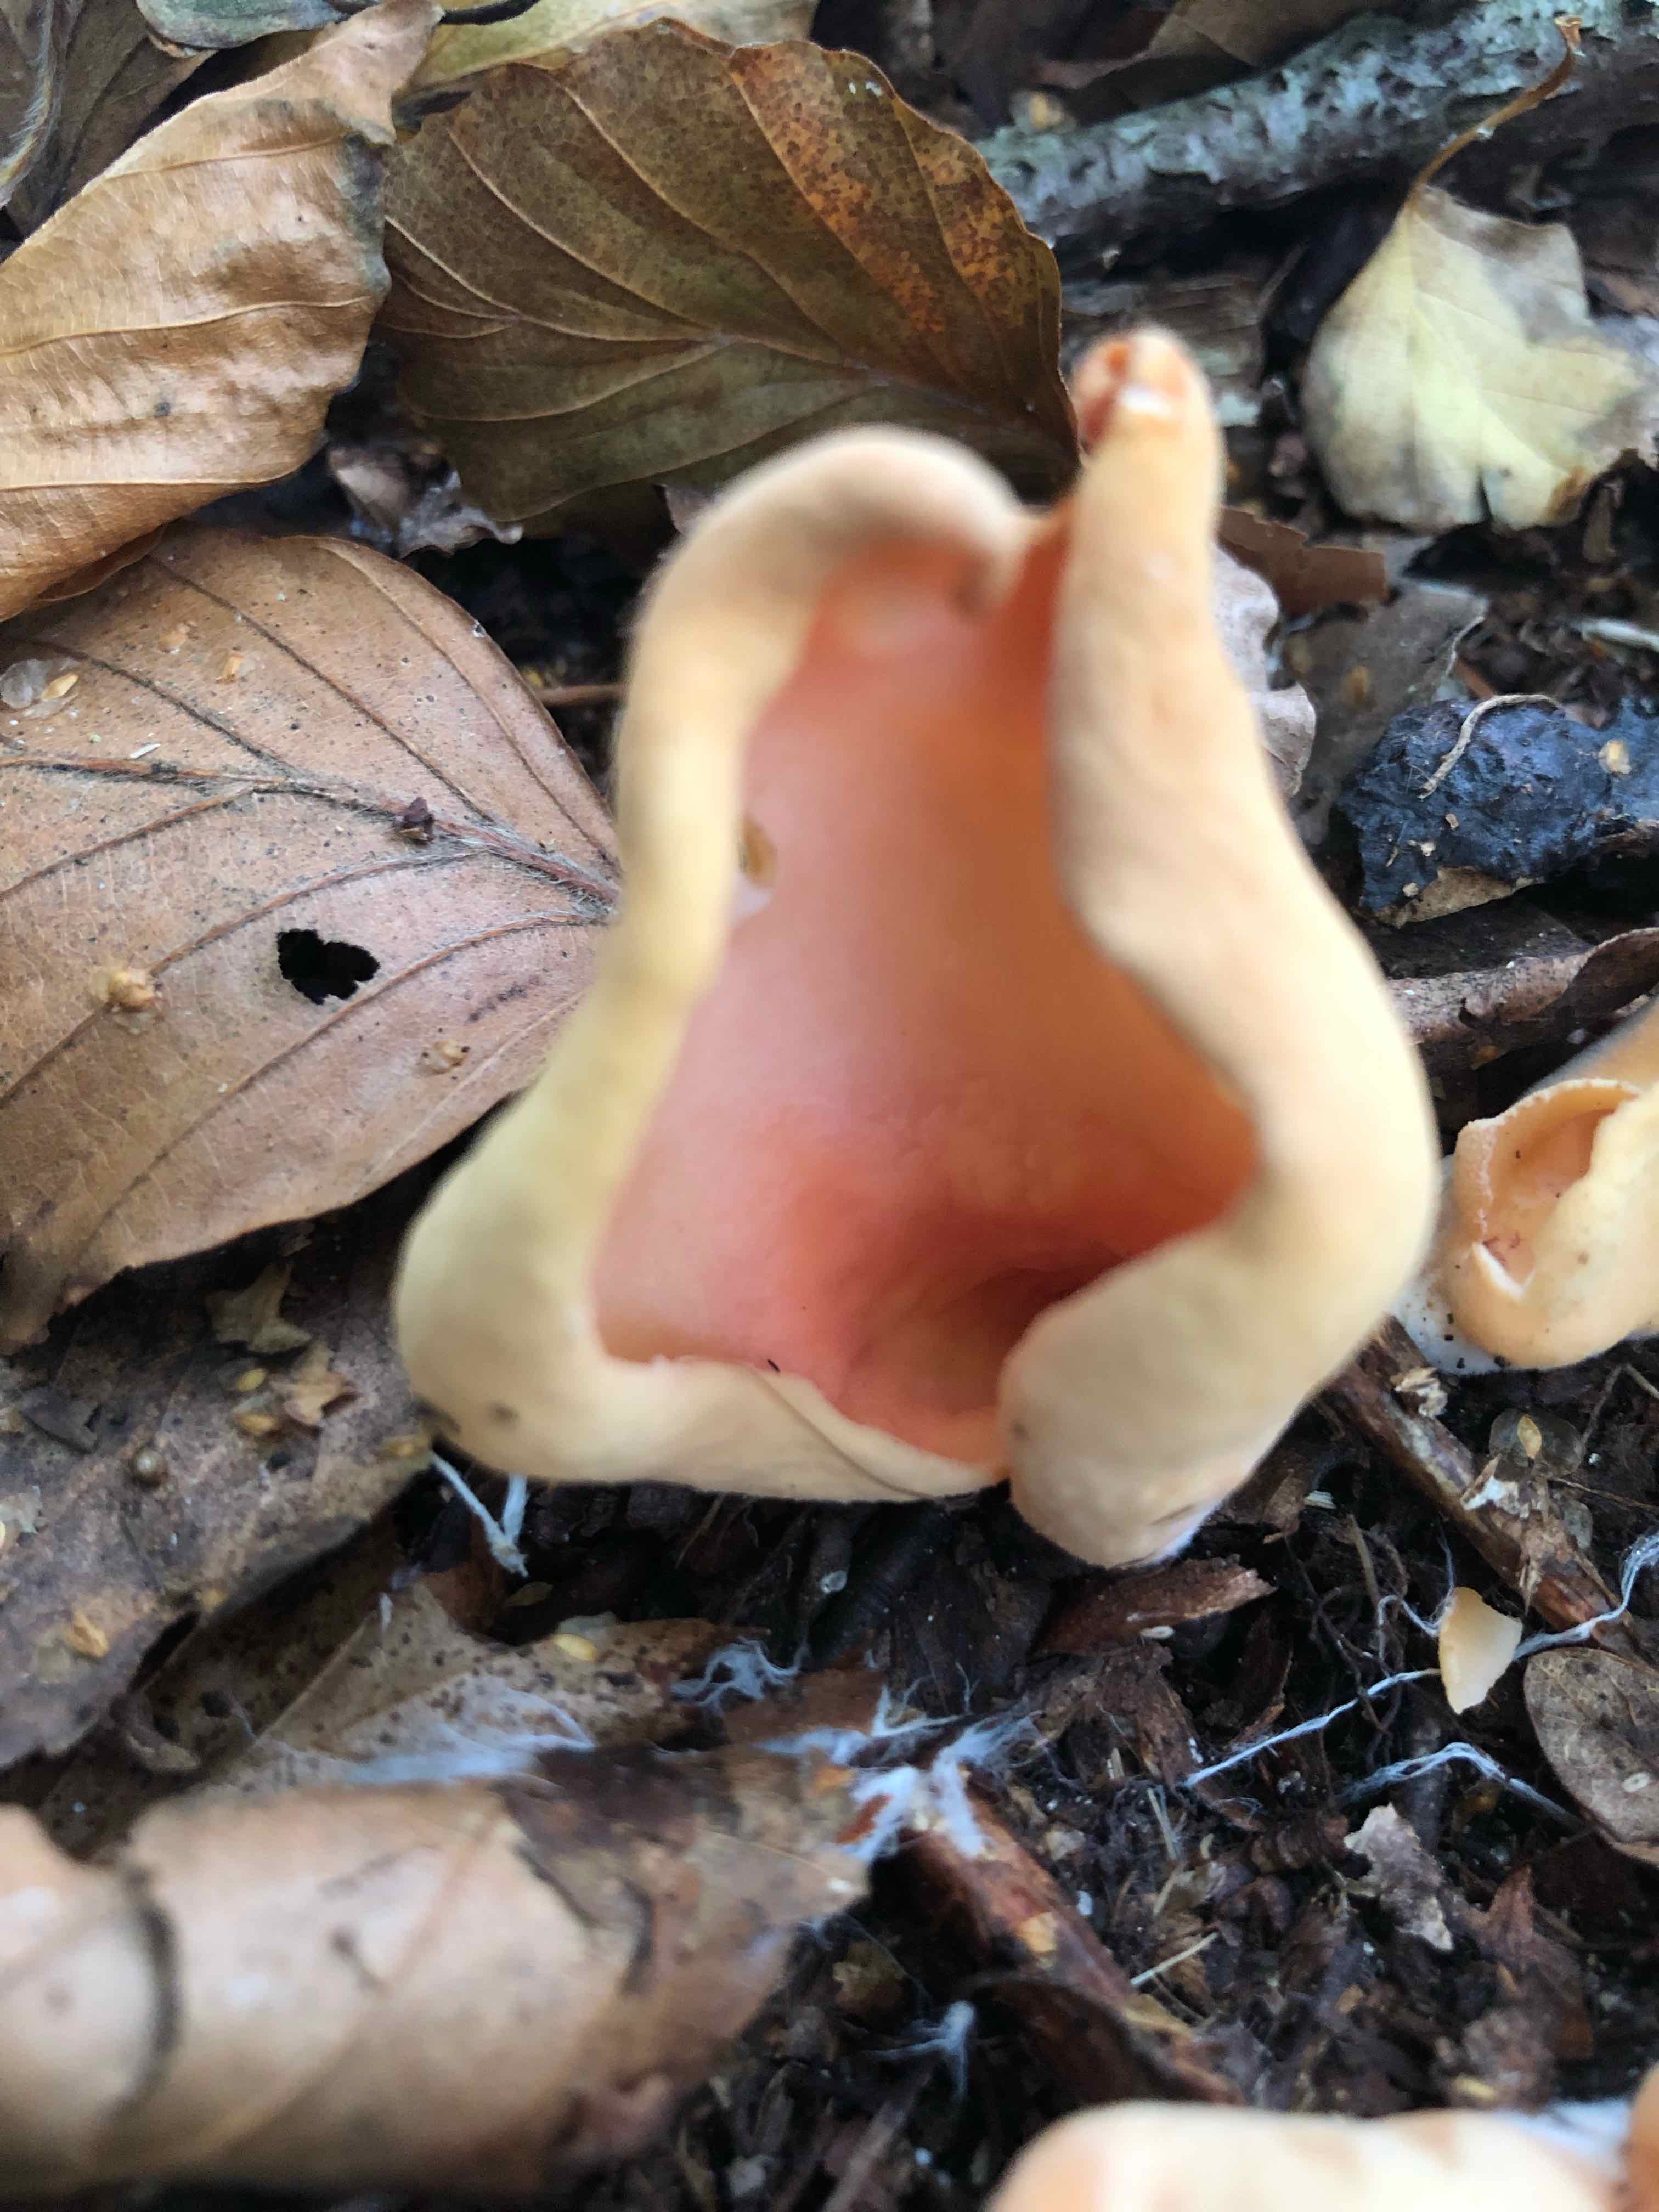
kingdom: Fungi
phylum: Ascomycota
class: Pezizomycetes
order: Pezizales
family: Otideaceae
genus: Otidea
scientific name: Otidea onotica
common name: æsel-ørebæger
